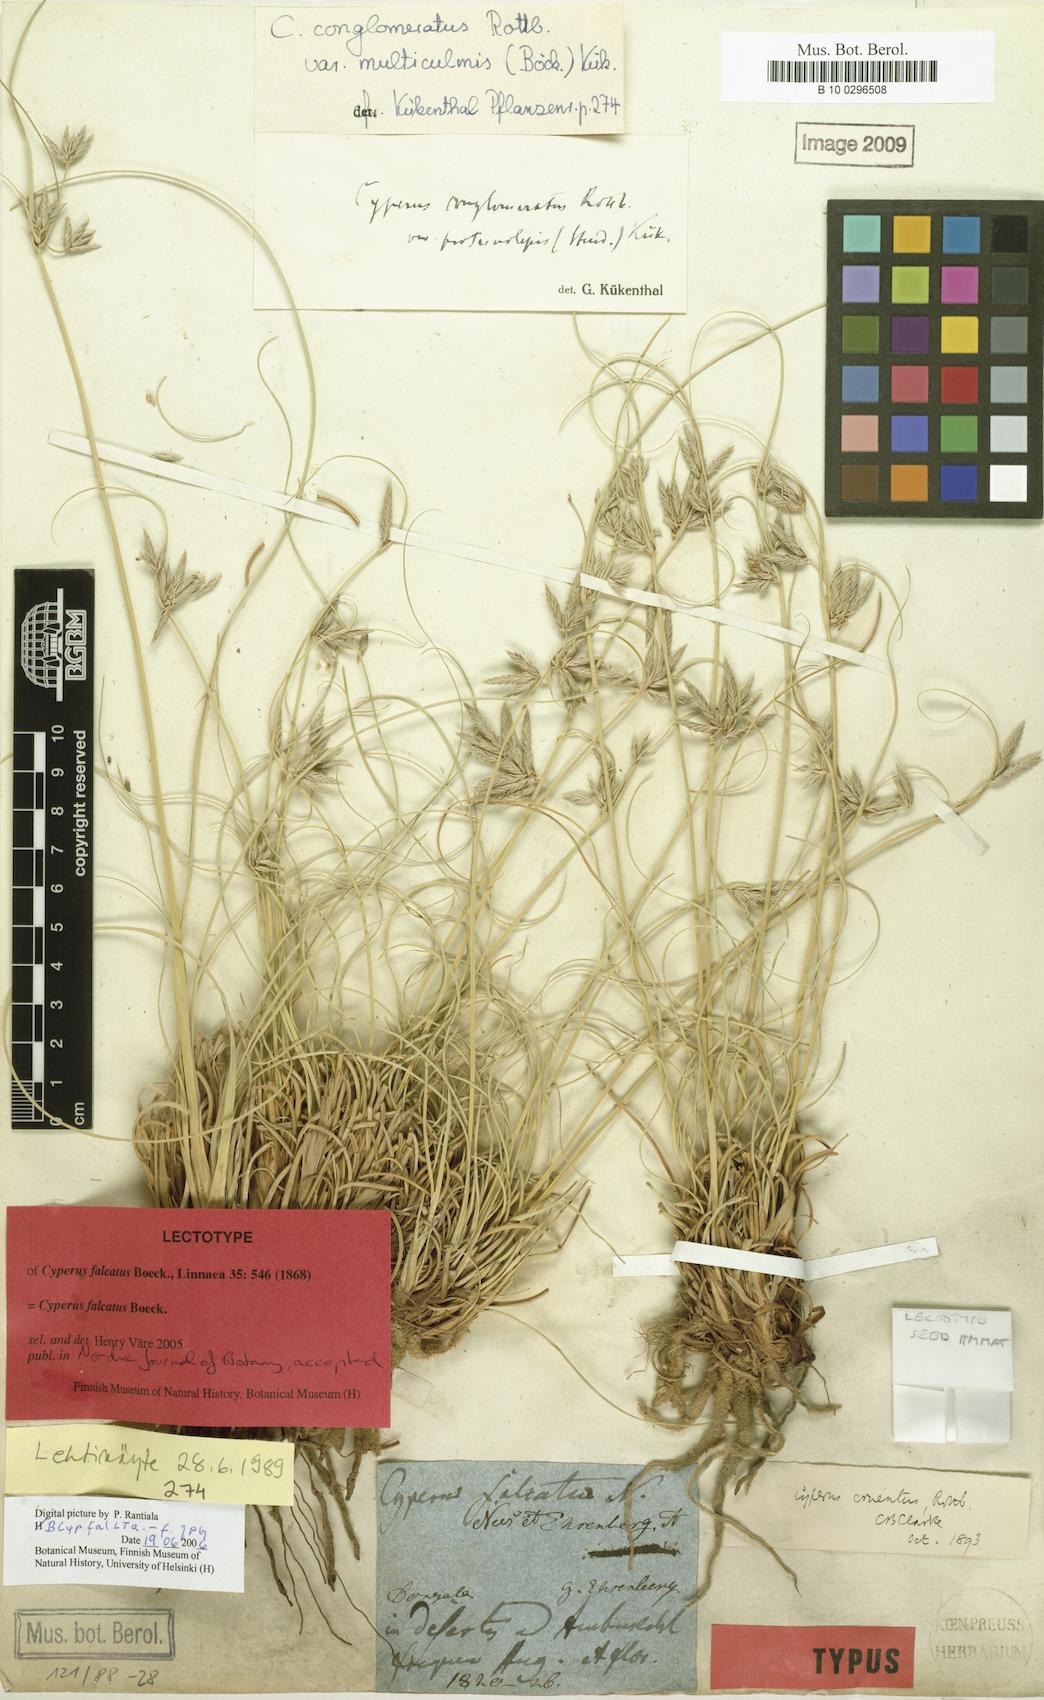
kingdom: Plantae
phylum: Tracheophyta
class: Liliopsida
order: Poales
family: Cyperaceae
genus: Cyperus
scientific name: Cyperus conglomeratus
